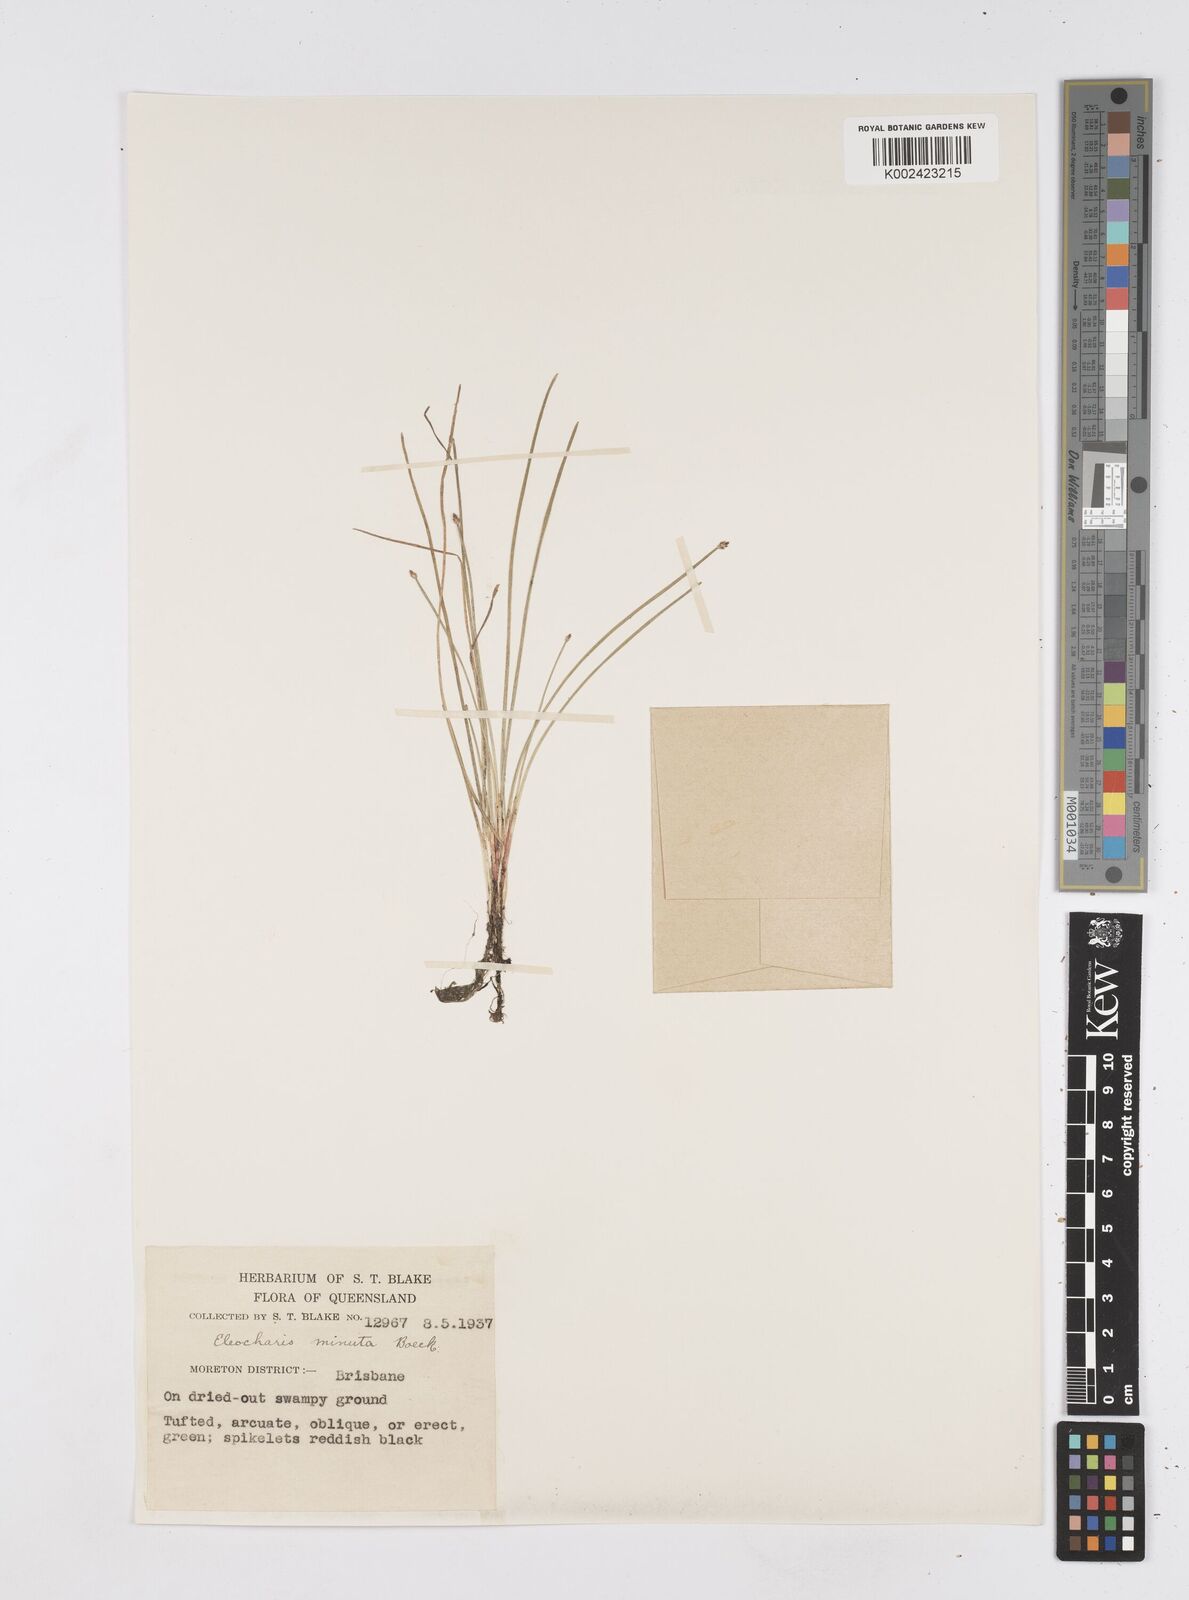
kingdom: Plantae
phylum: Tracheophyta
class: Liliopsida
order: Poales
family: Cyperaceae
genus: Eleocharis
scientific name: Eleocharis minuta
